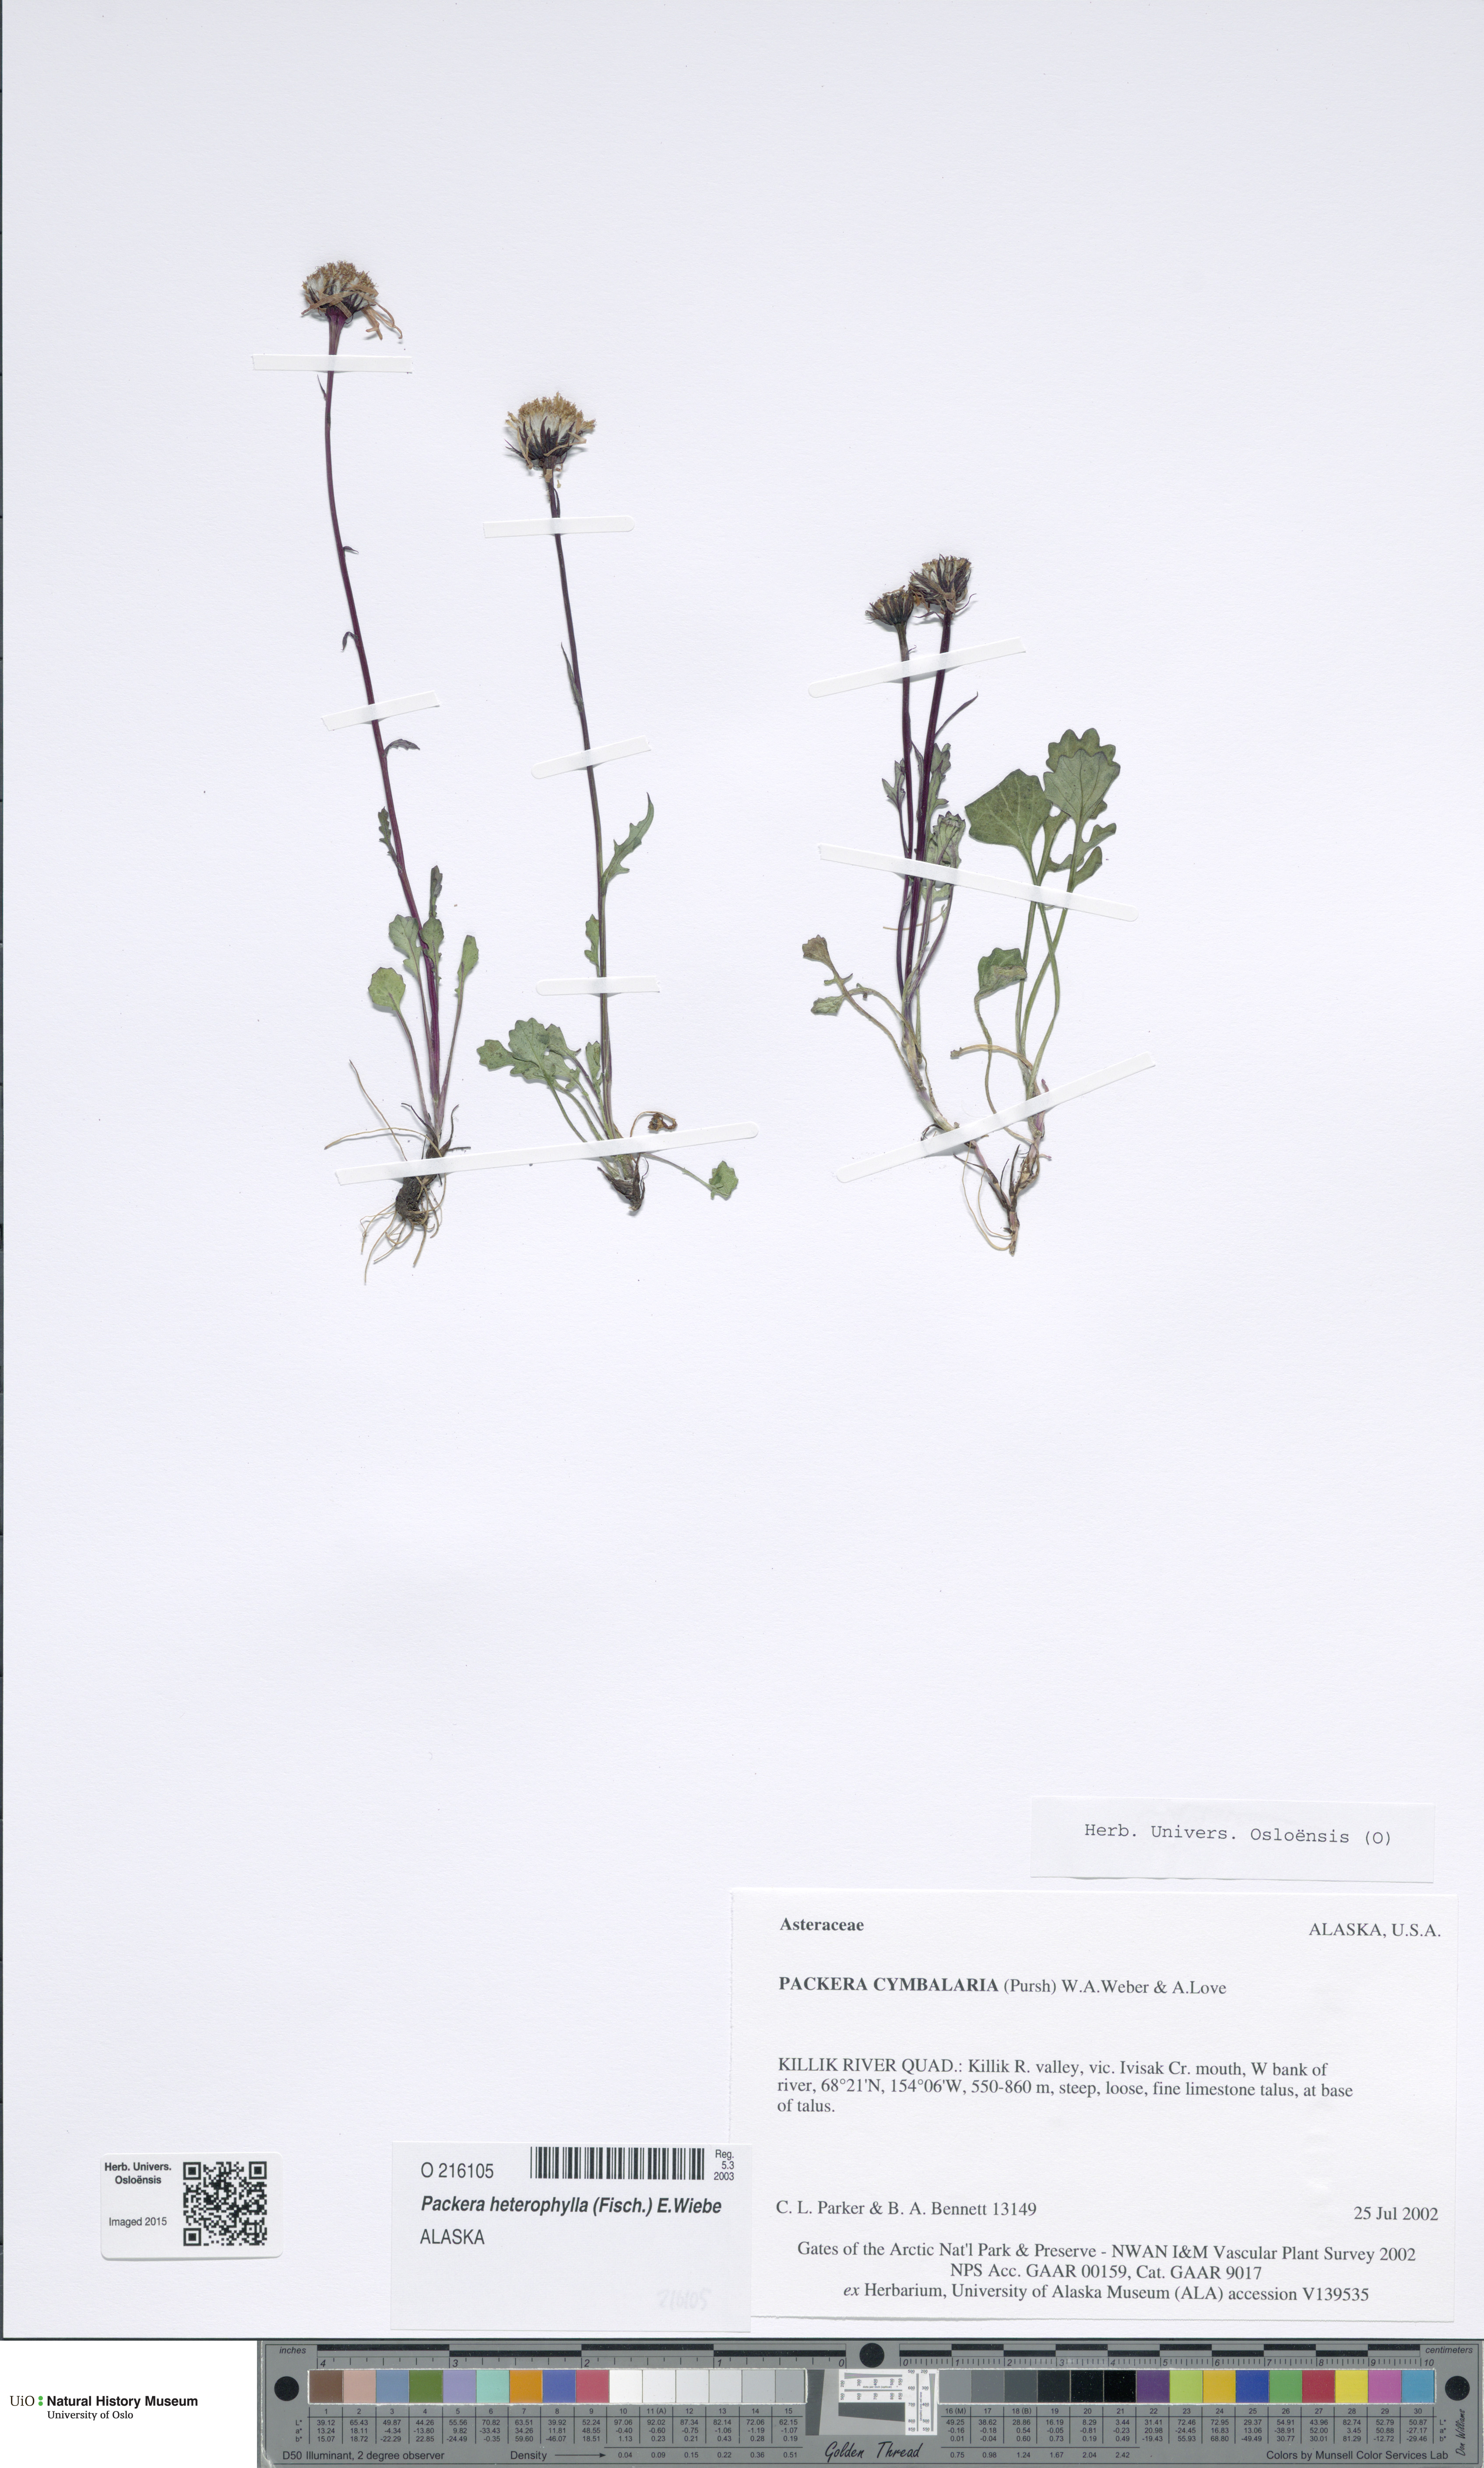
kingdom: Plantae
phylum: Tracheophyta
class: Magnoliopsida
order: Asterales
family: Asteraceae
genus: Packera
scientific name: Packera heterophylla
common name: Arctic butterweed
